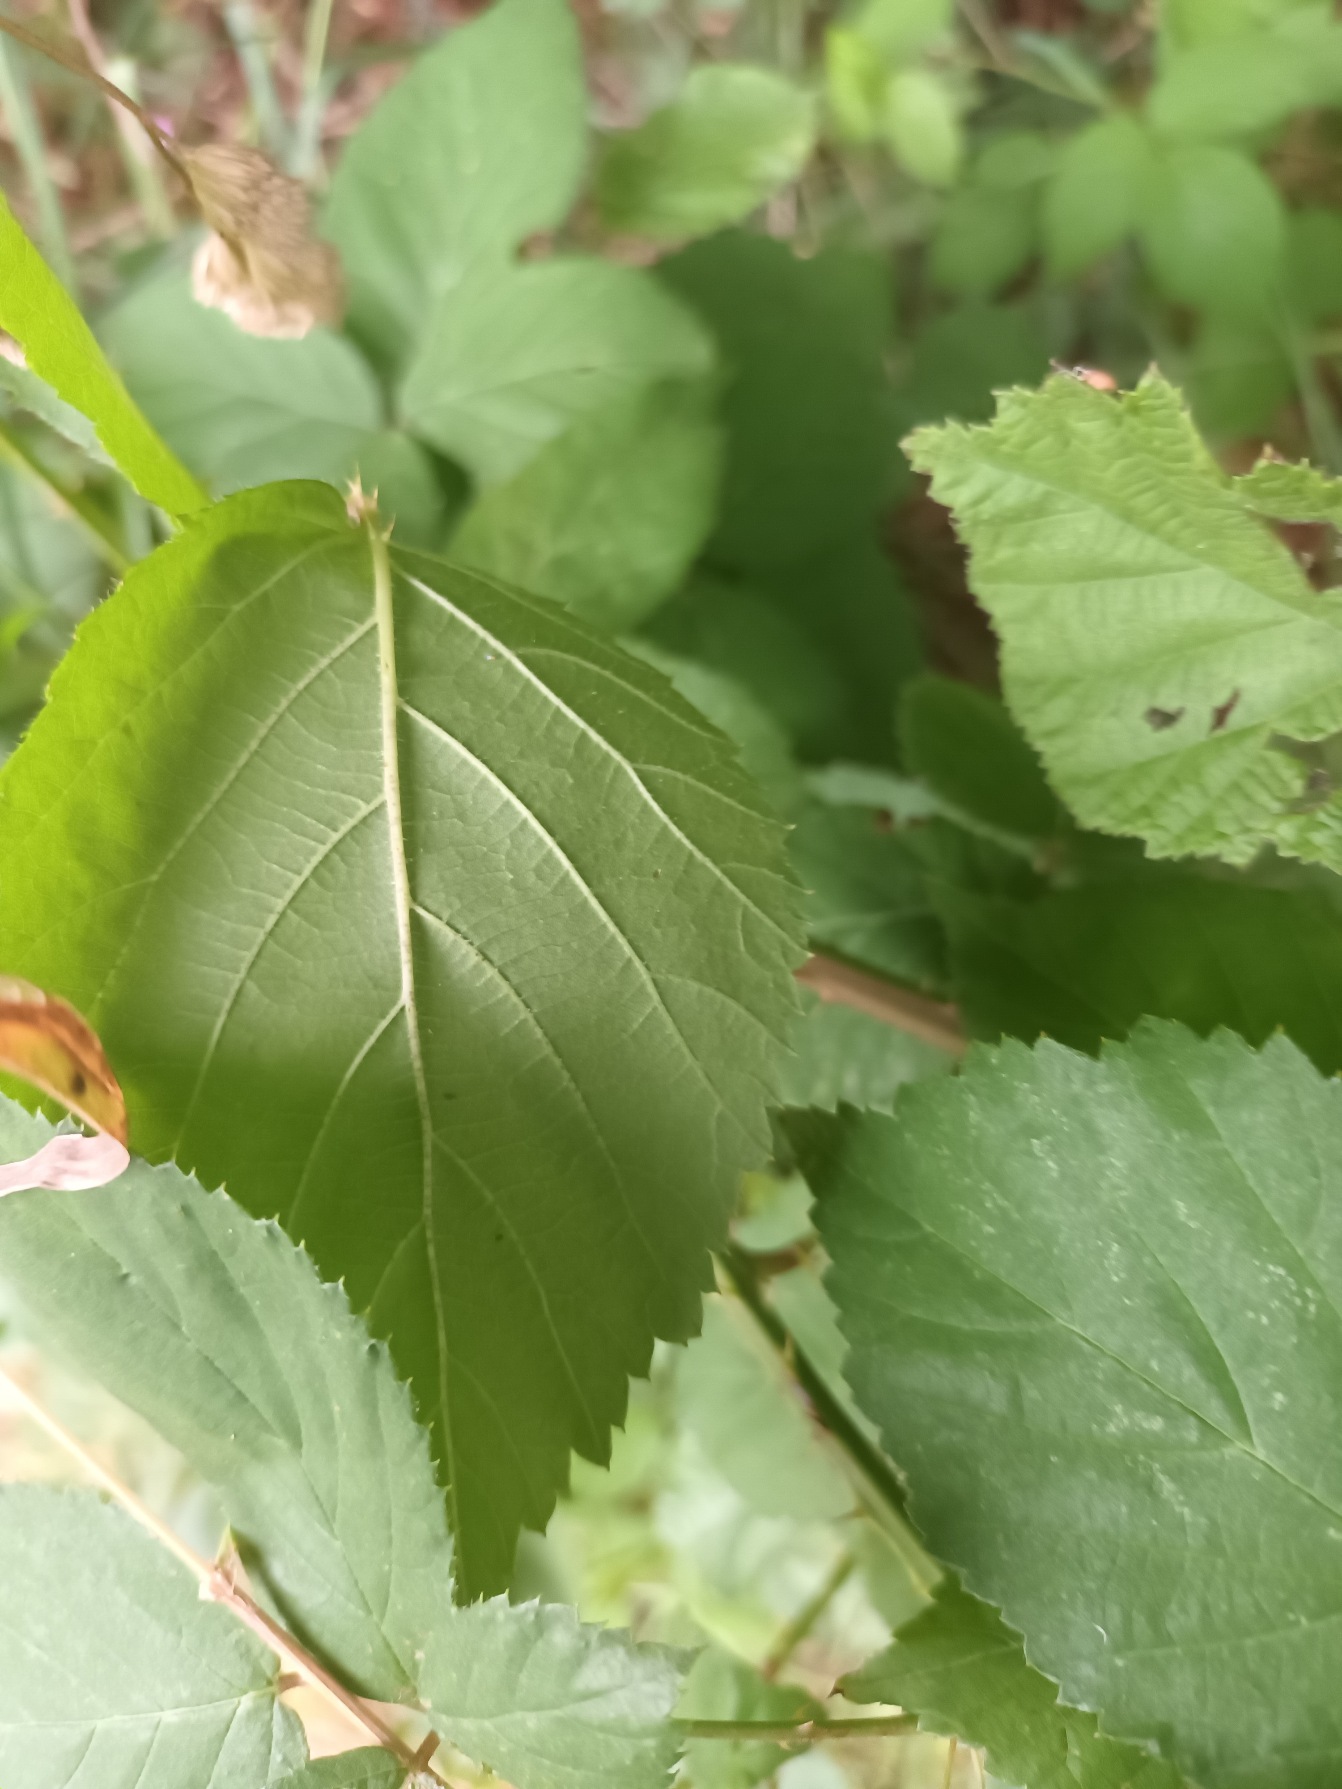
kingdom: Plantae
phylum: Tracheophyta
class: Magnoliopsida
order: Rosales
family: Rosaceae
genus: Rubus
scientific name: Rubus sciocharis
